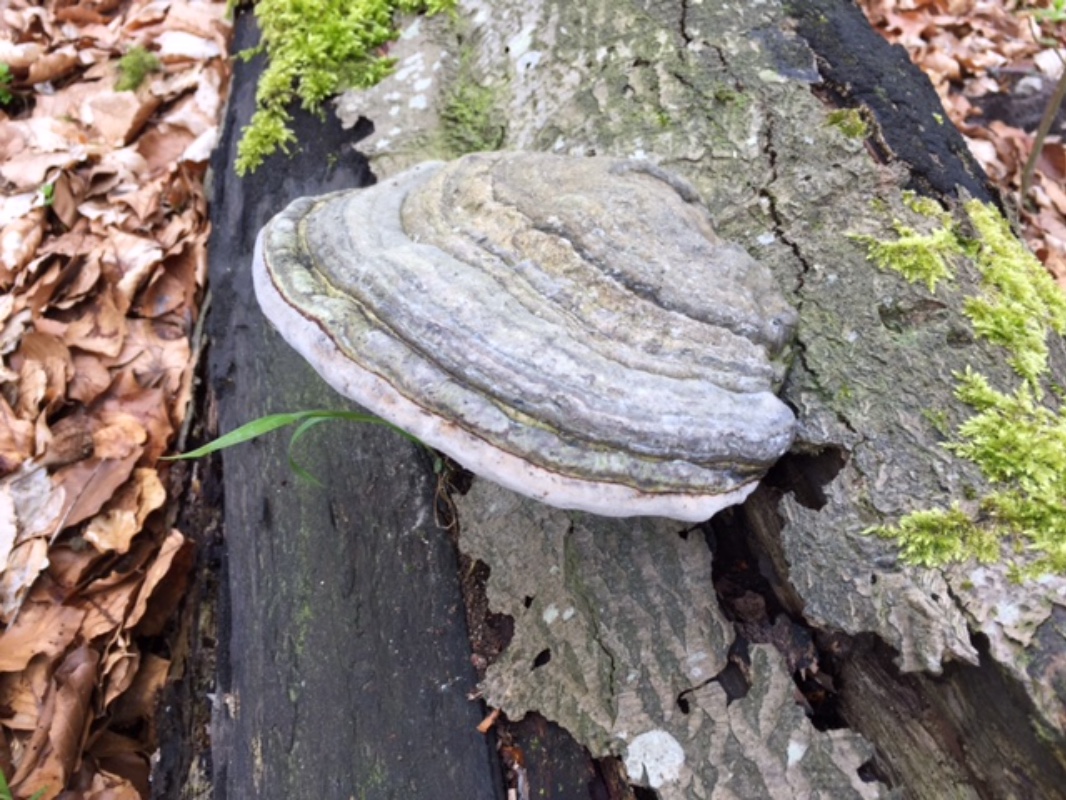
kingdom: Fungi
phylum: Basidiomycota
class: Agaricomycetes
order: Polyporales
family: Polyporaceae
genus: Fomes
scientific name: Fomes fomentarius
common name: tøndersvamp
